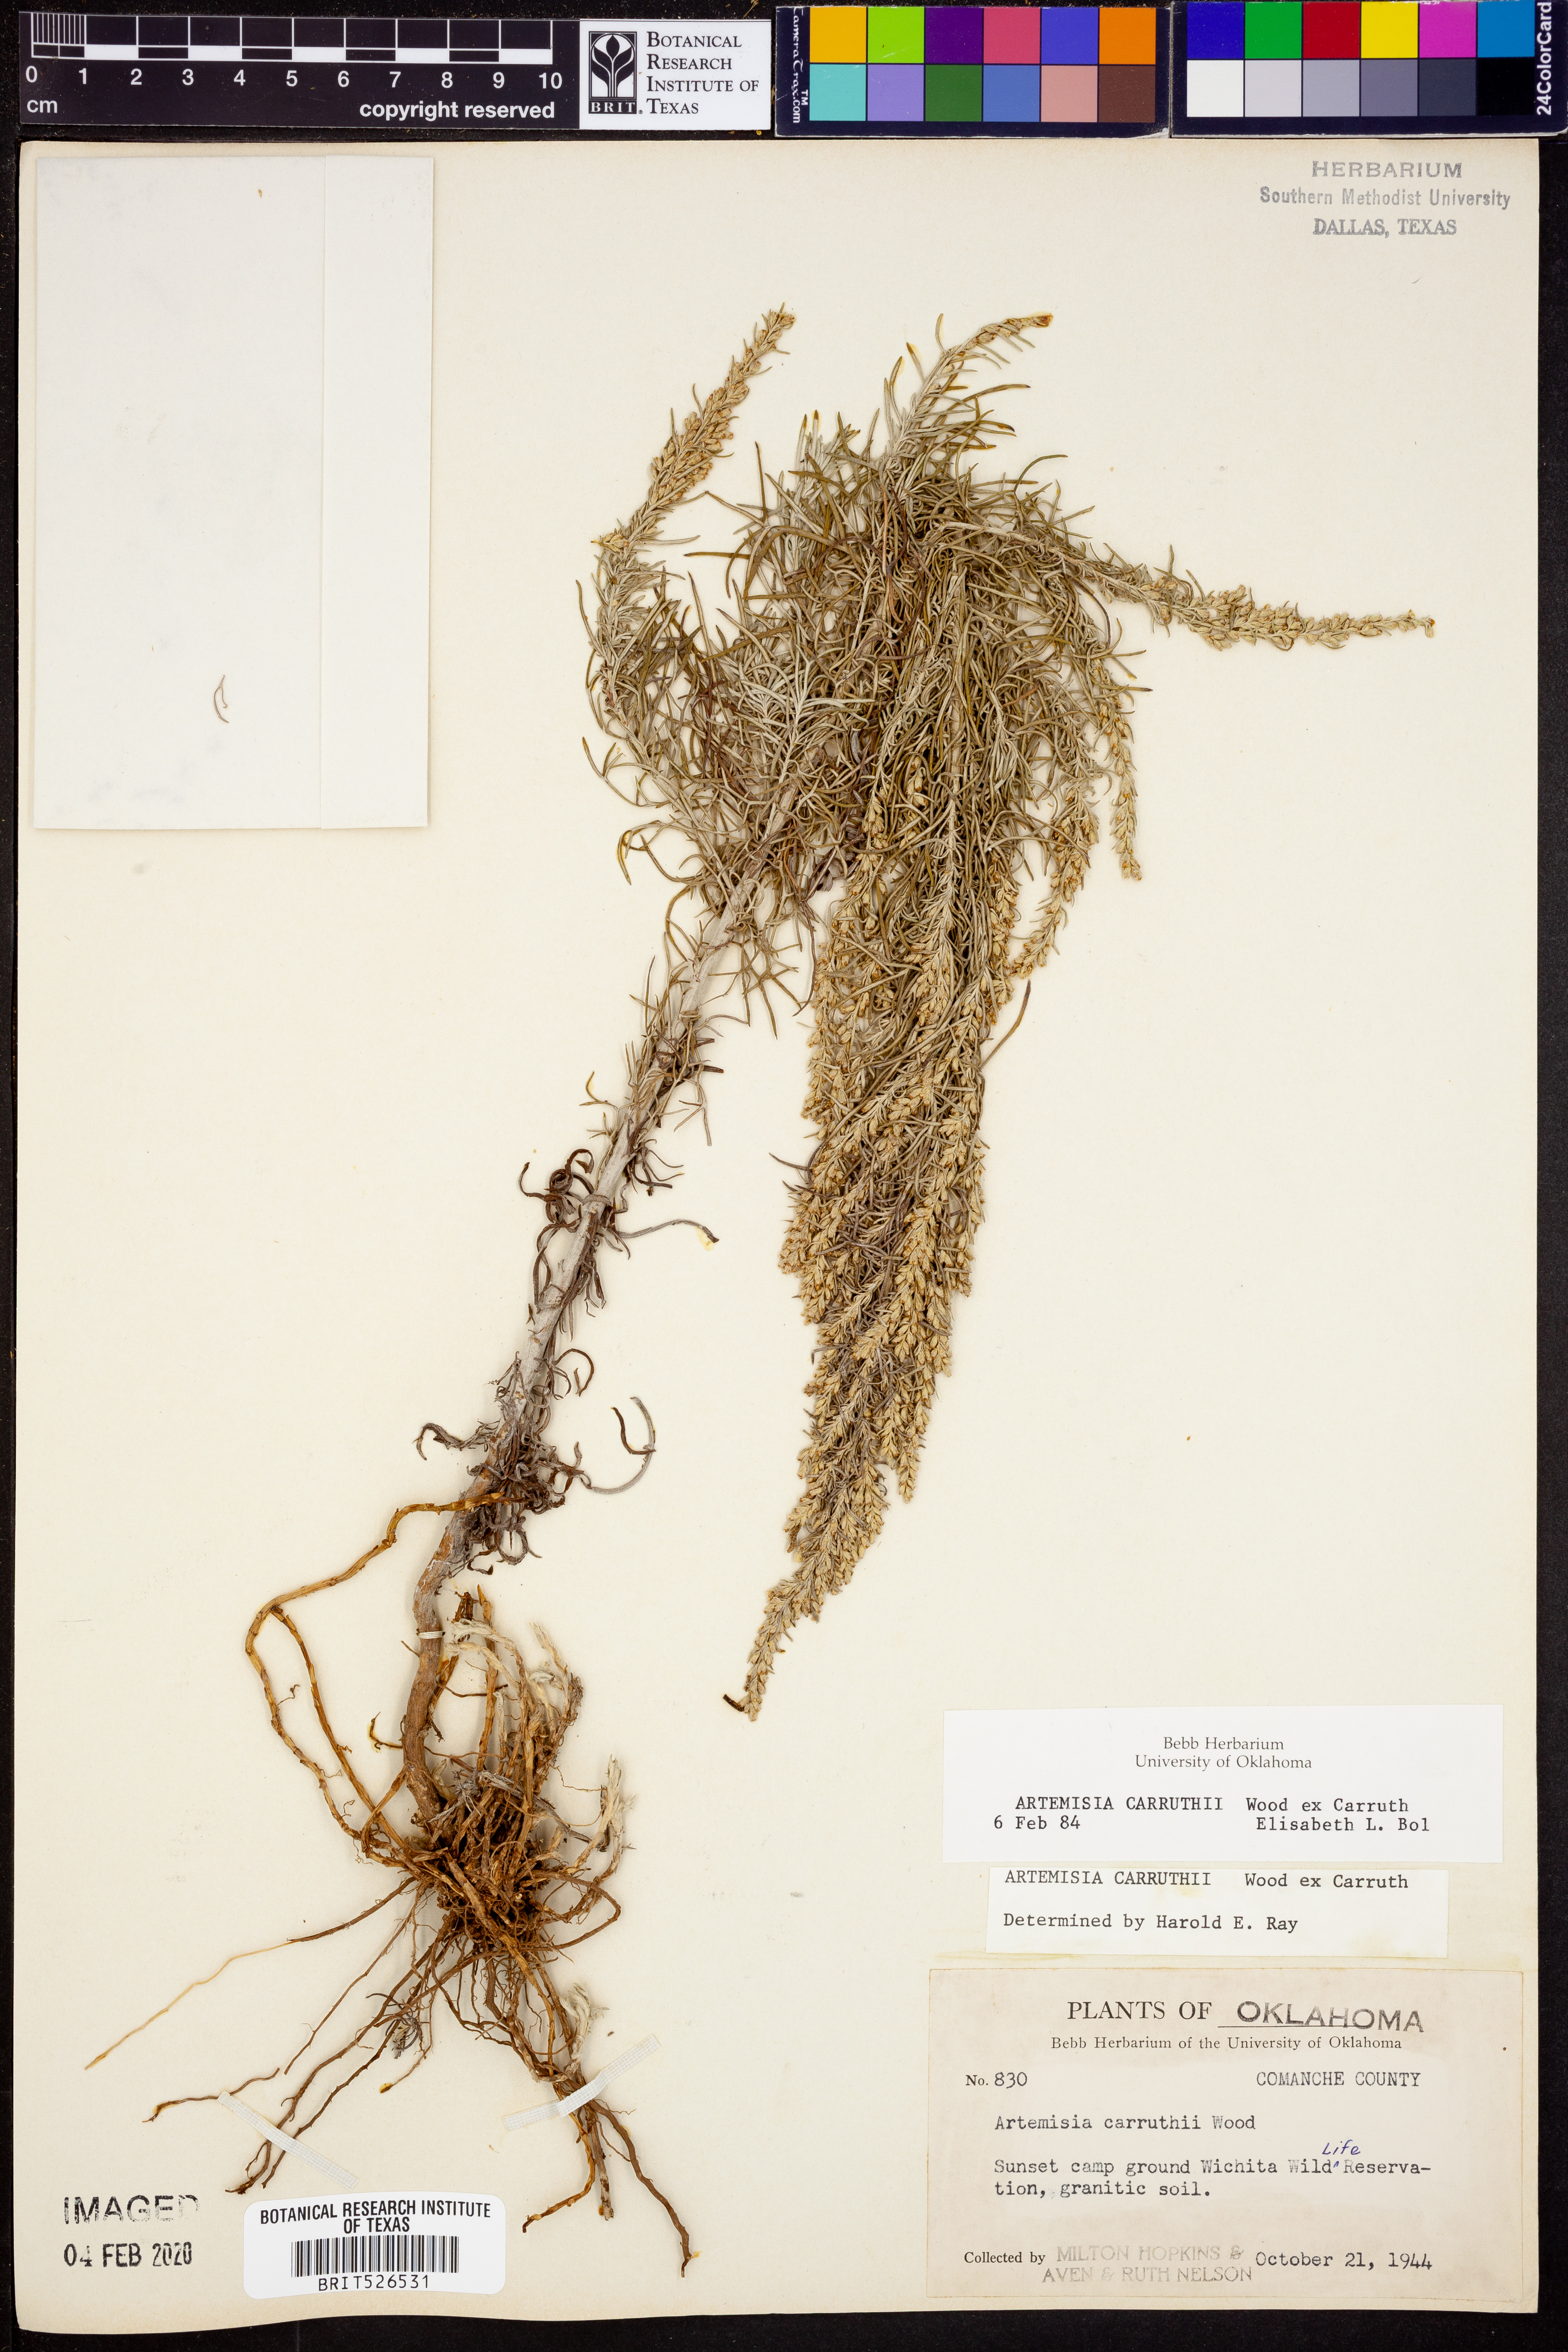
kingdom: Plantae
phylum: Tracheophyta
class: Magnoliopsida
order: Asterales
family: Asteraceae
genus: Artemisia
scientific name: Artemisia carruthii
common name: Carruth wormwood
